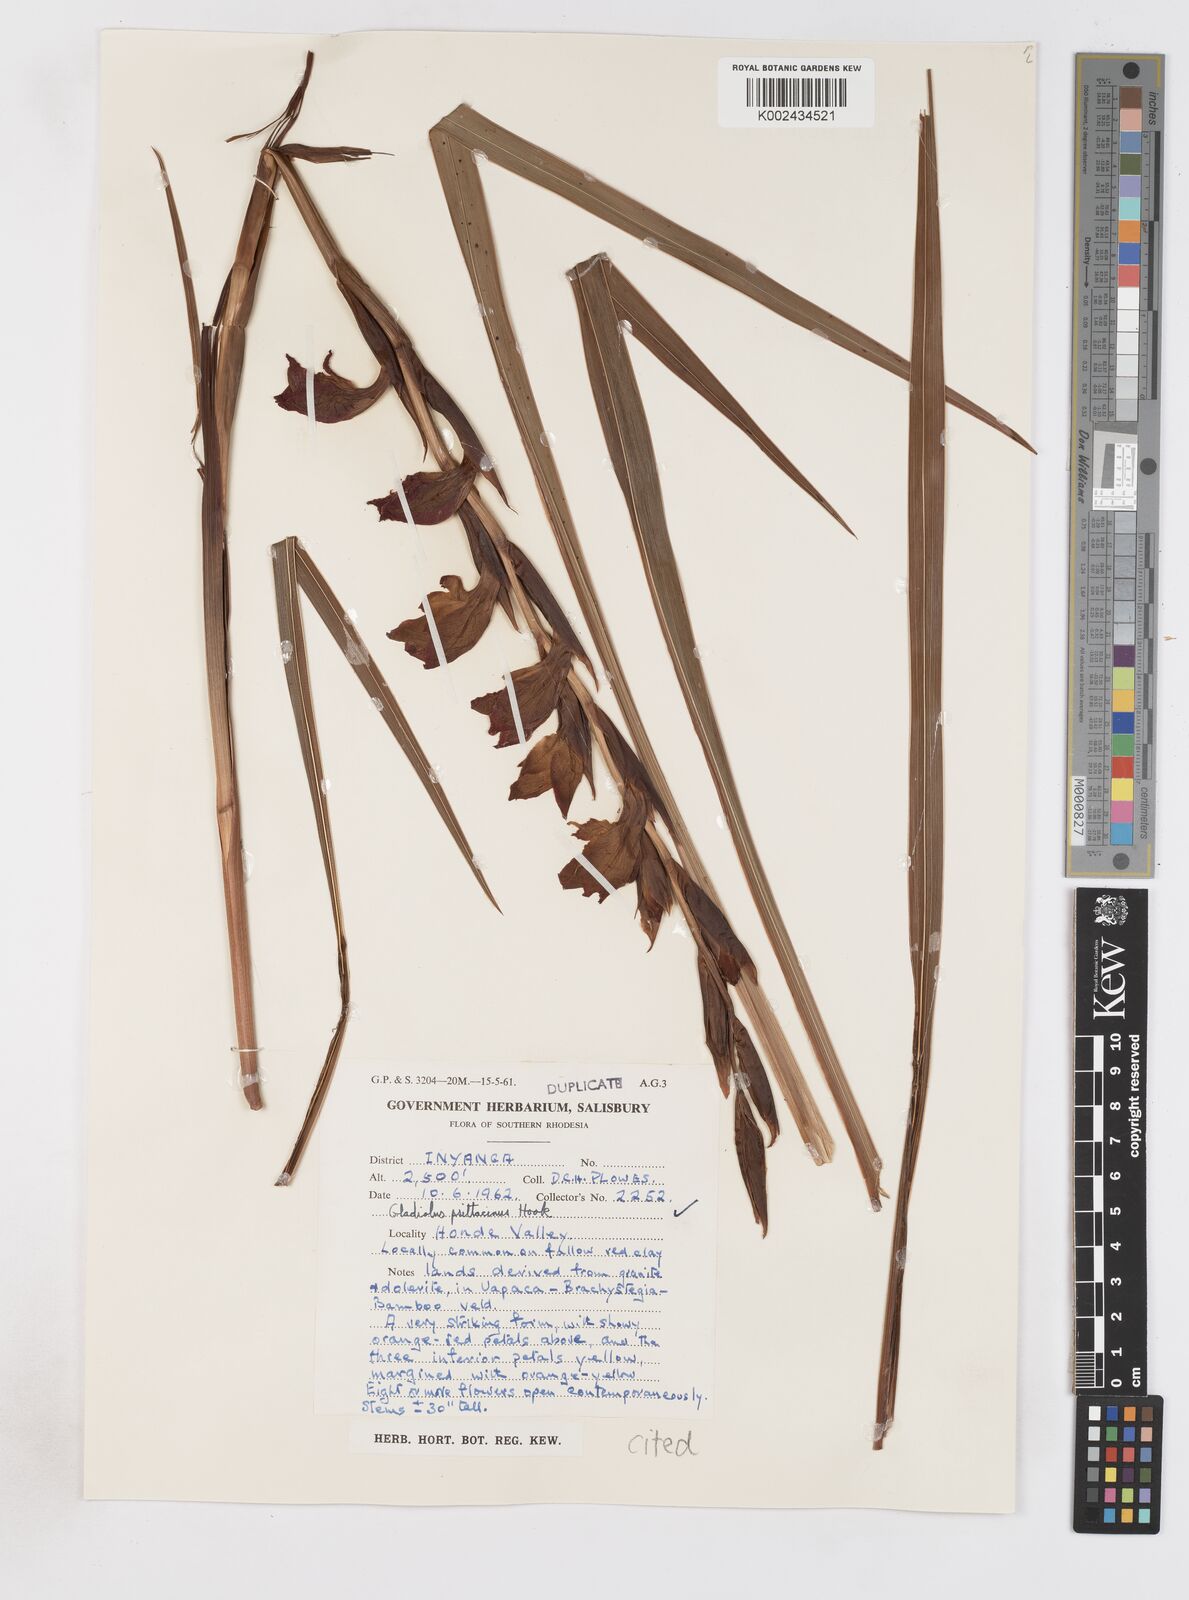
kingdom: Plantae
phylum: Tracheophyta
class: Liliopsida
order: Asparagales
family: Iridaceae
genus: Gladiolus
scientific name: Gladiolus dalenii
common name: Cornflag
